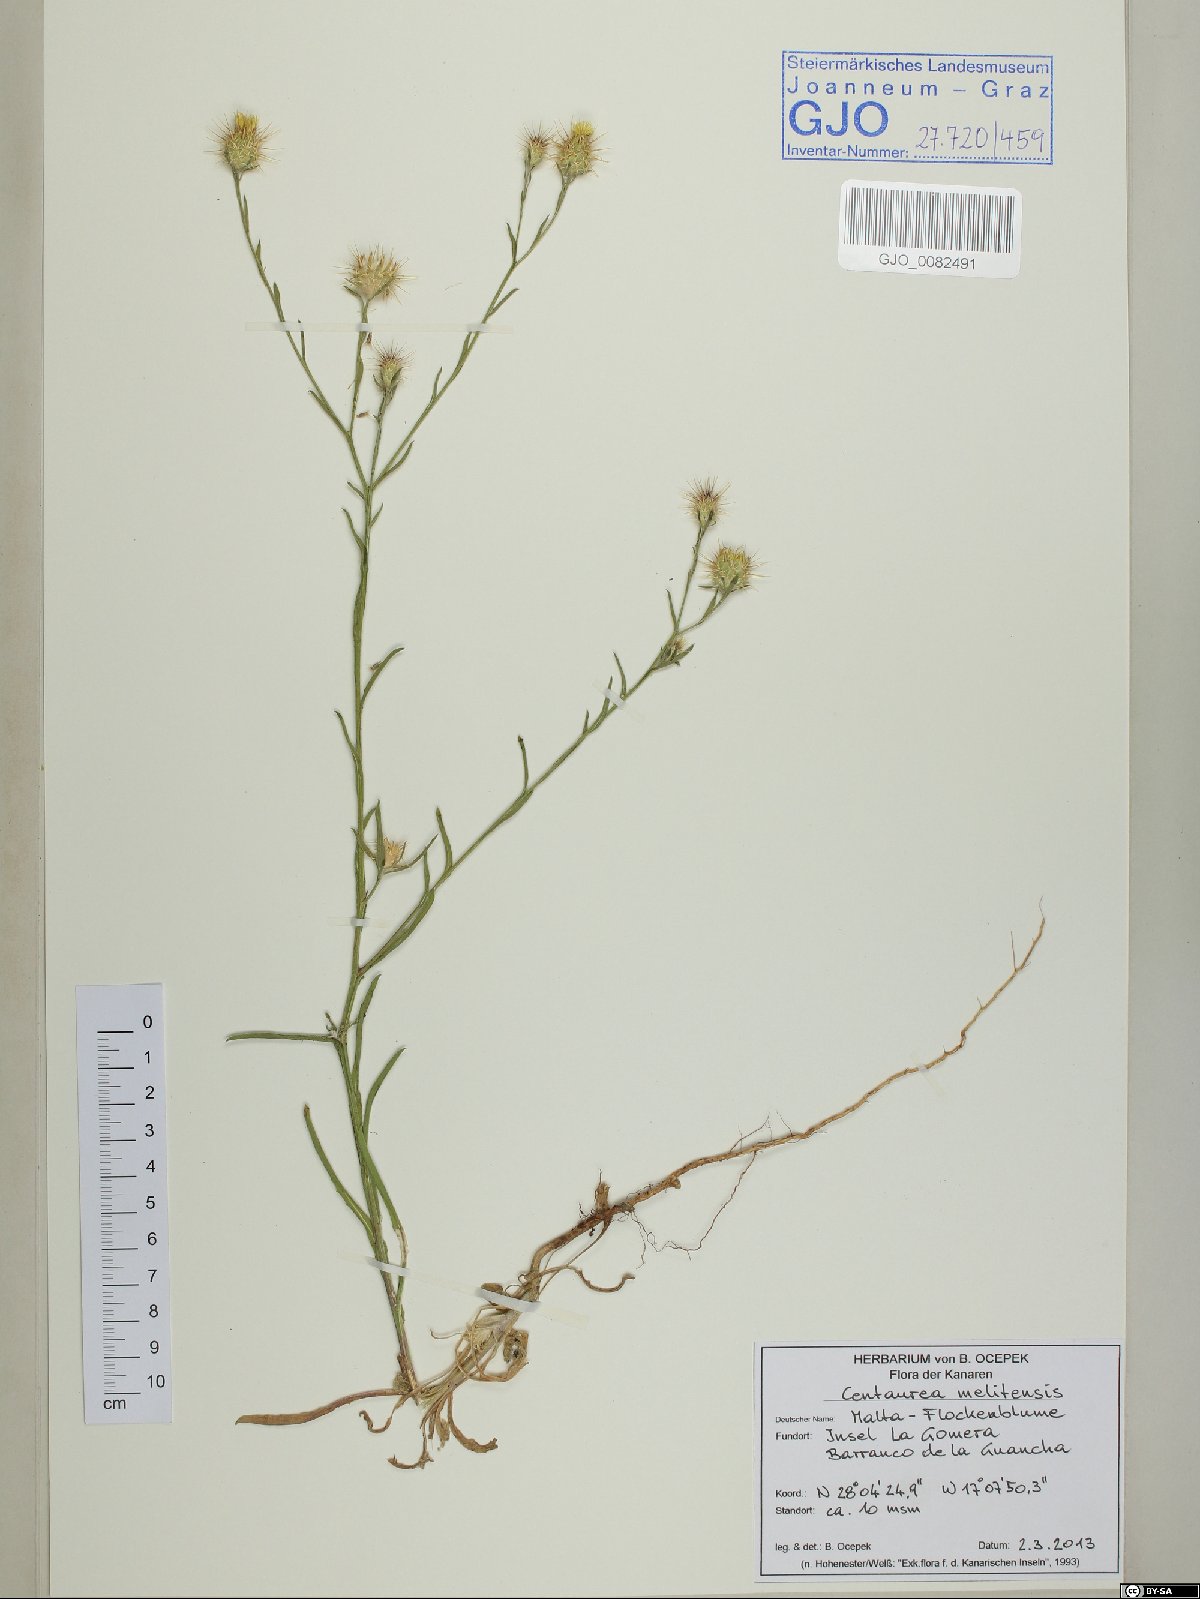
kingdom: Plantae
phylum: Tracheophyta
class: Magnoliopsida
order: Asterales
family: Asteraceae
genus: Centaurea
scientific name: Centaurea melitensis
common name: Maltese star-thistle
